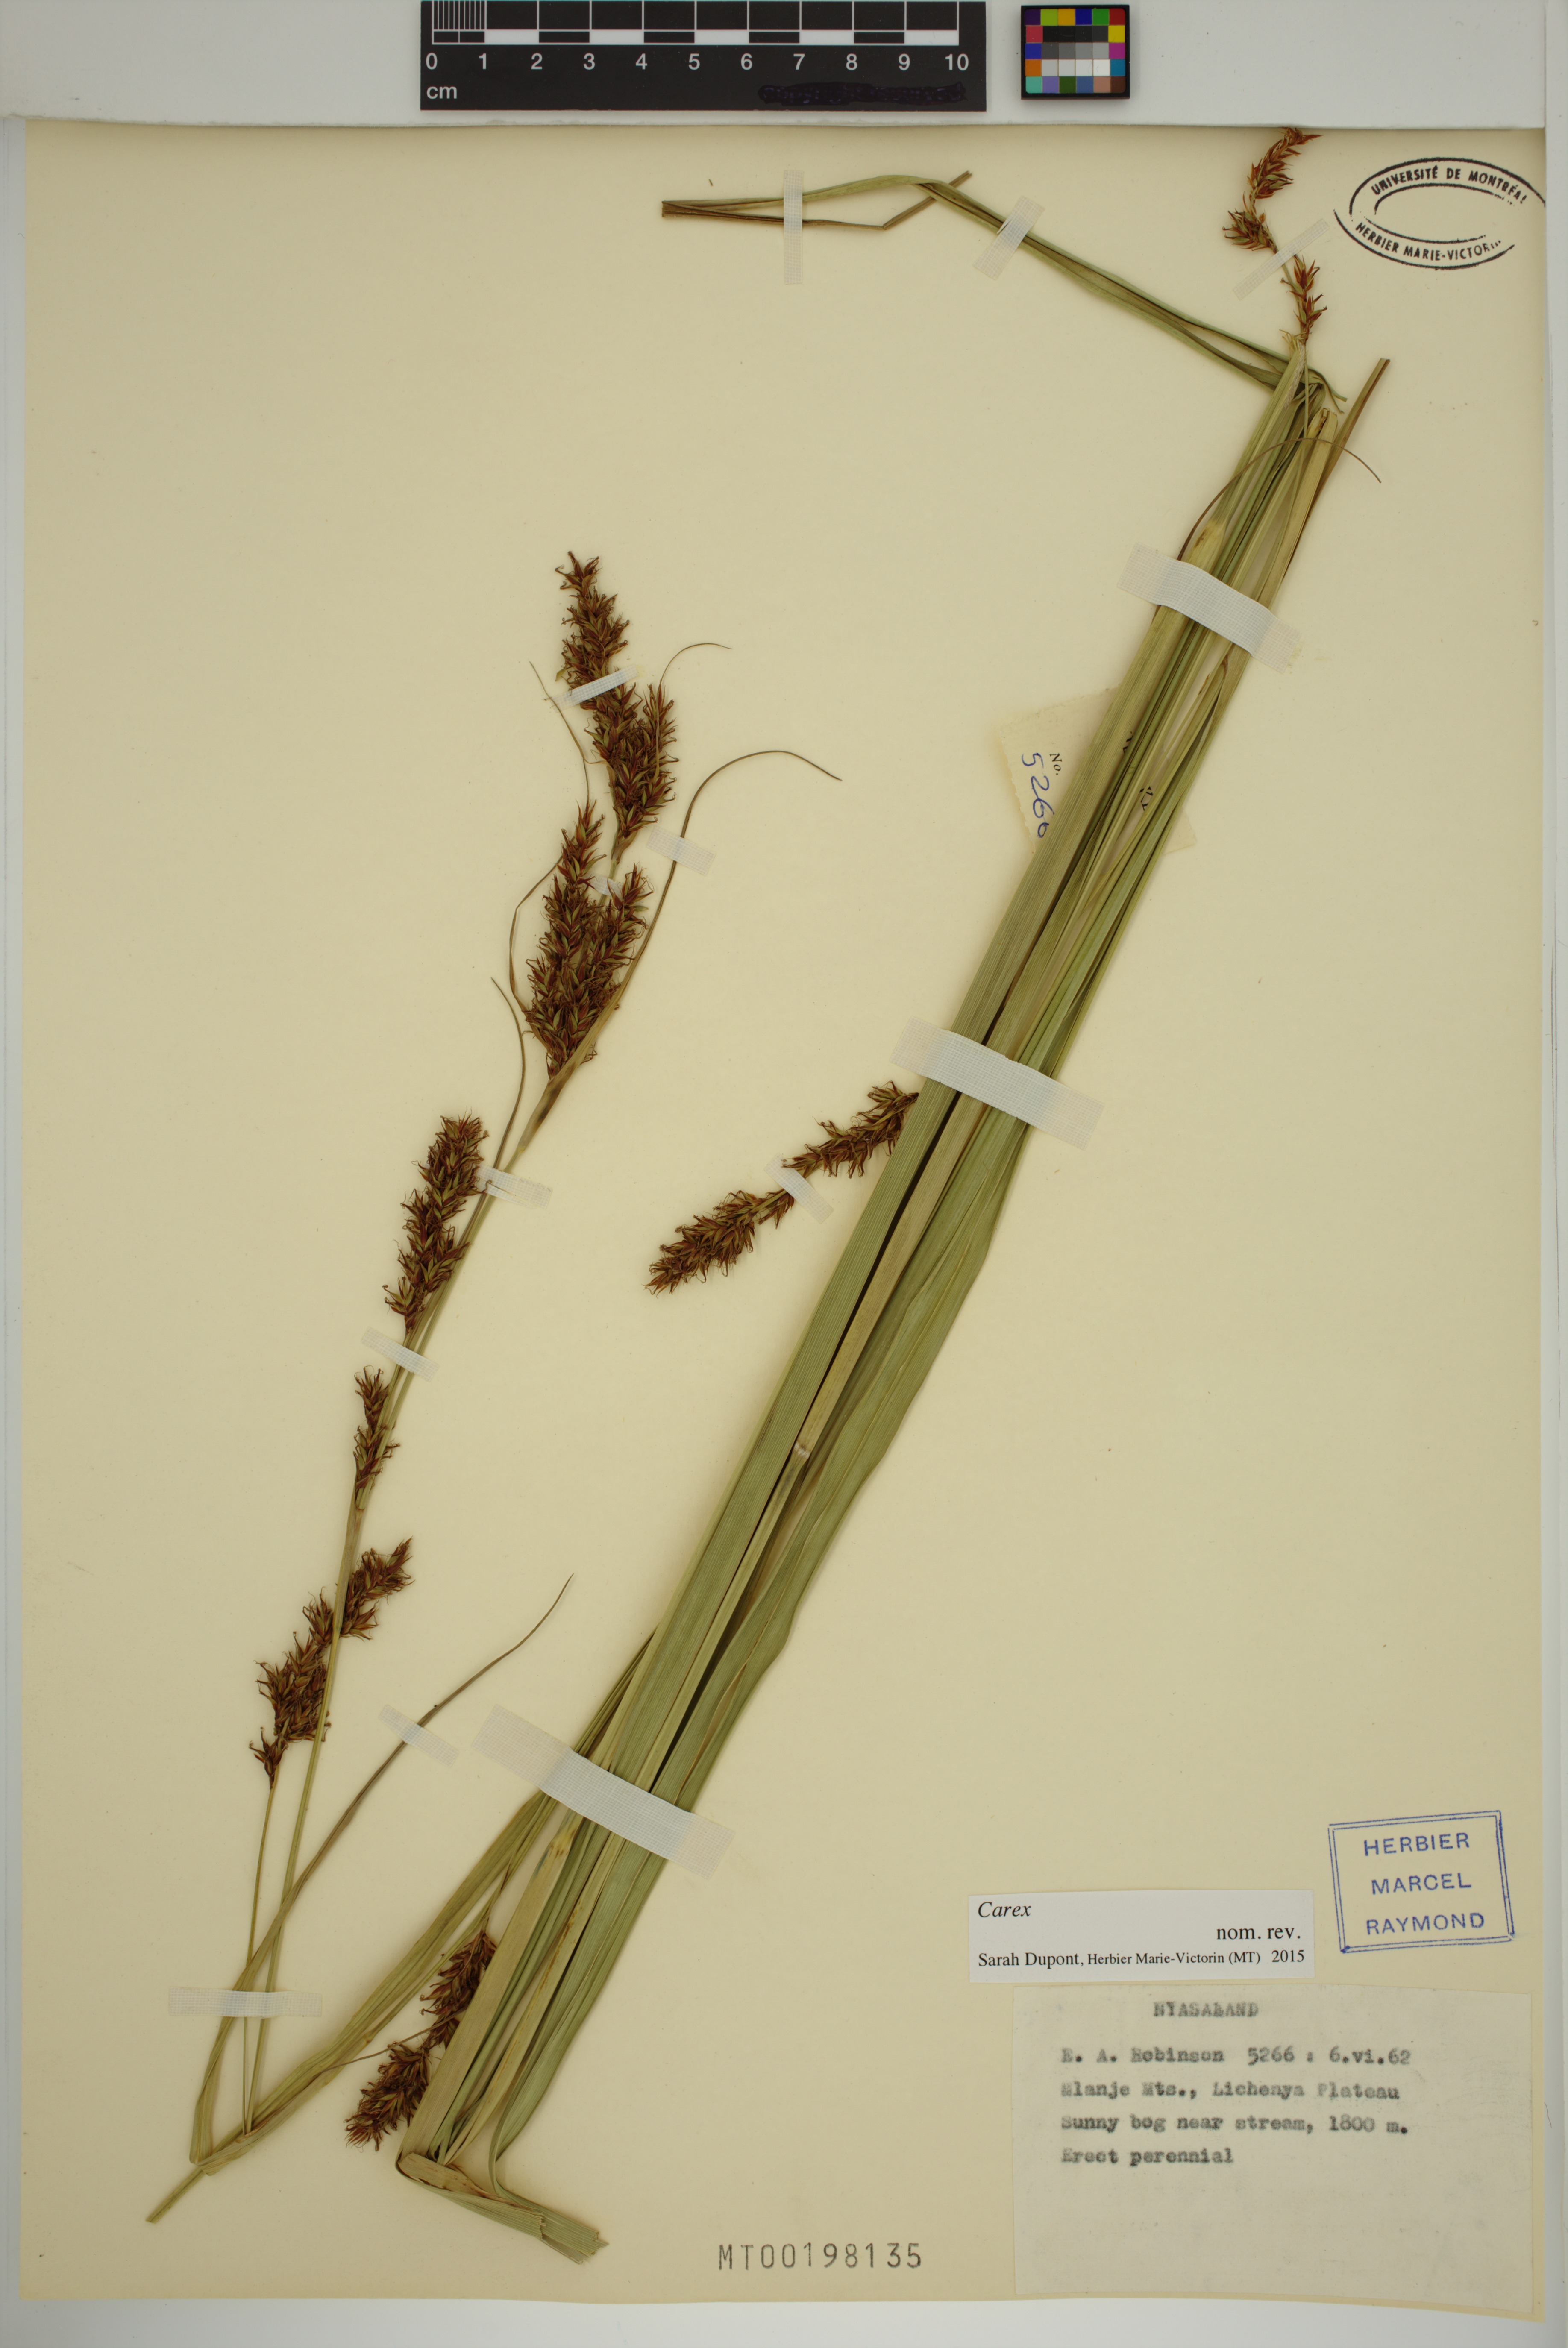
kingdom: Plantae
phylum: Tracheophyta
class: Liliopsida
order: Poales
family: Cyperaceae
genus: Carex
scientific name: Carex
